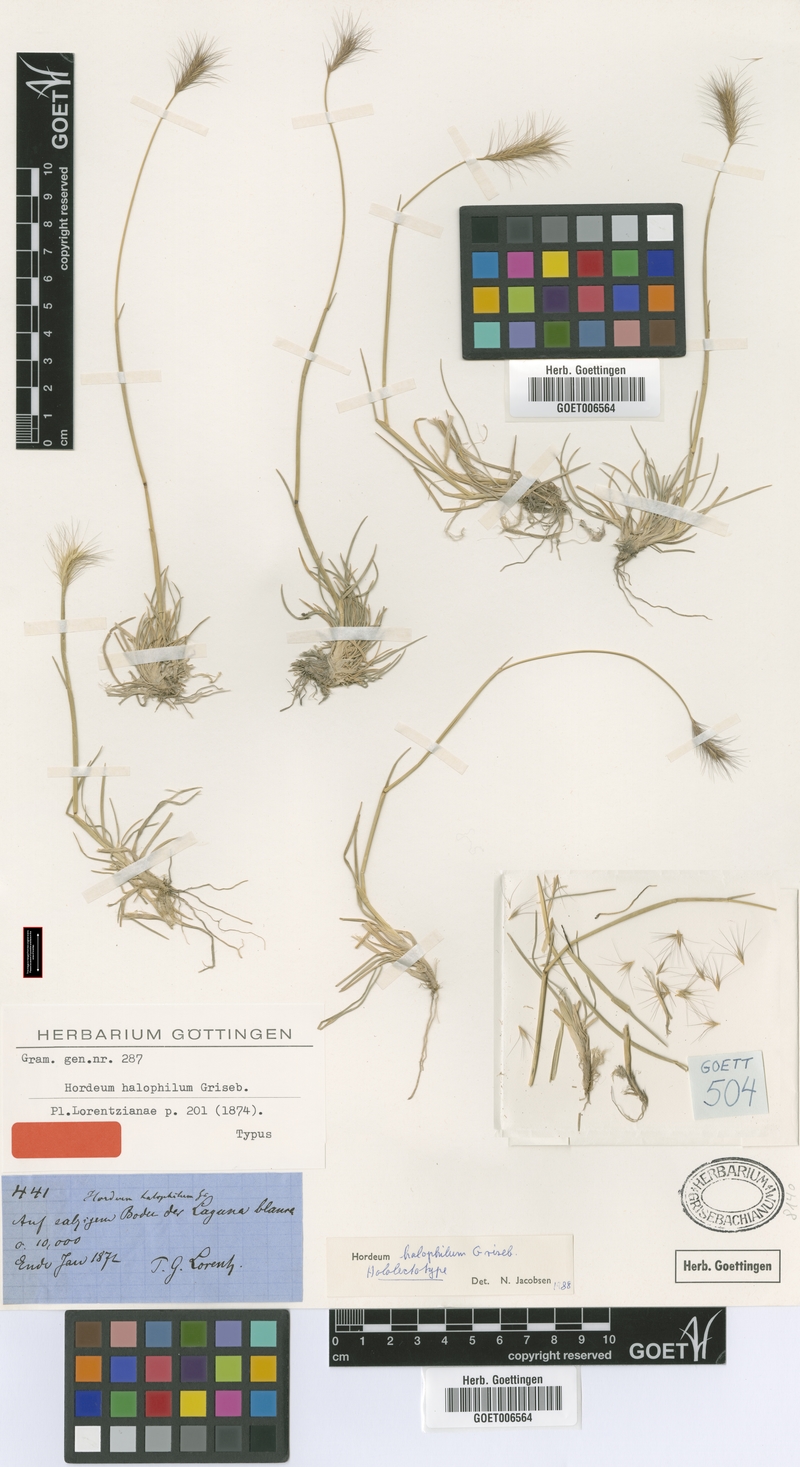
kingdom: Plantae
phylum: Tracheophyta
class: Liliopsida
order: Poales
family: Poaceae
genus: Hordeum
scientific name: Hordeum halophilum
